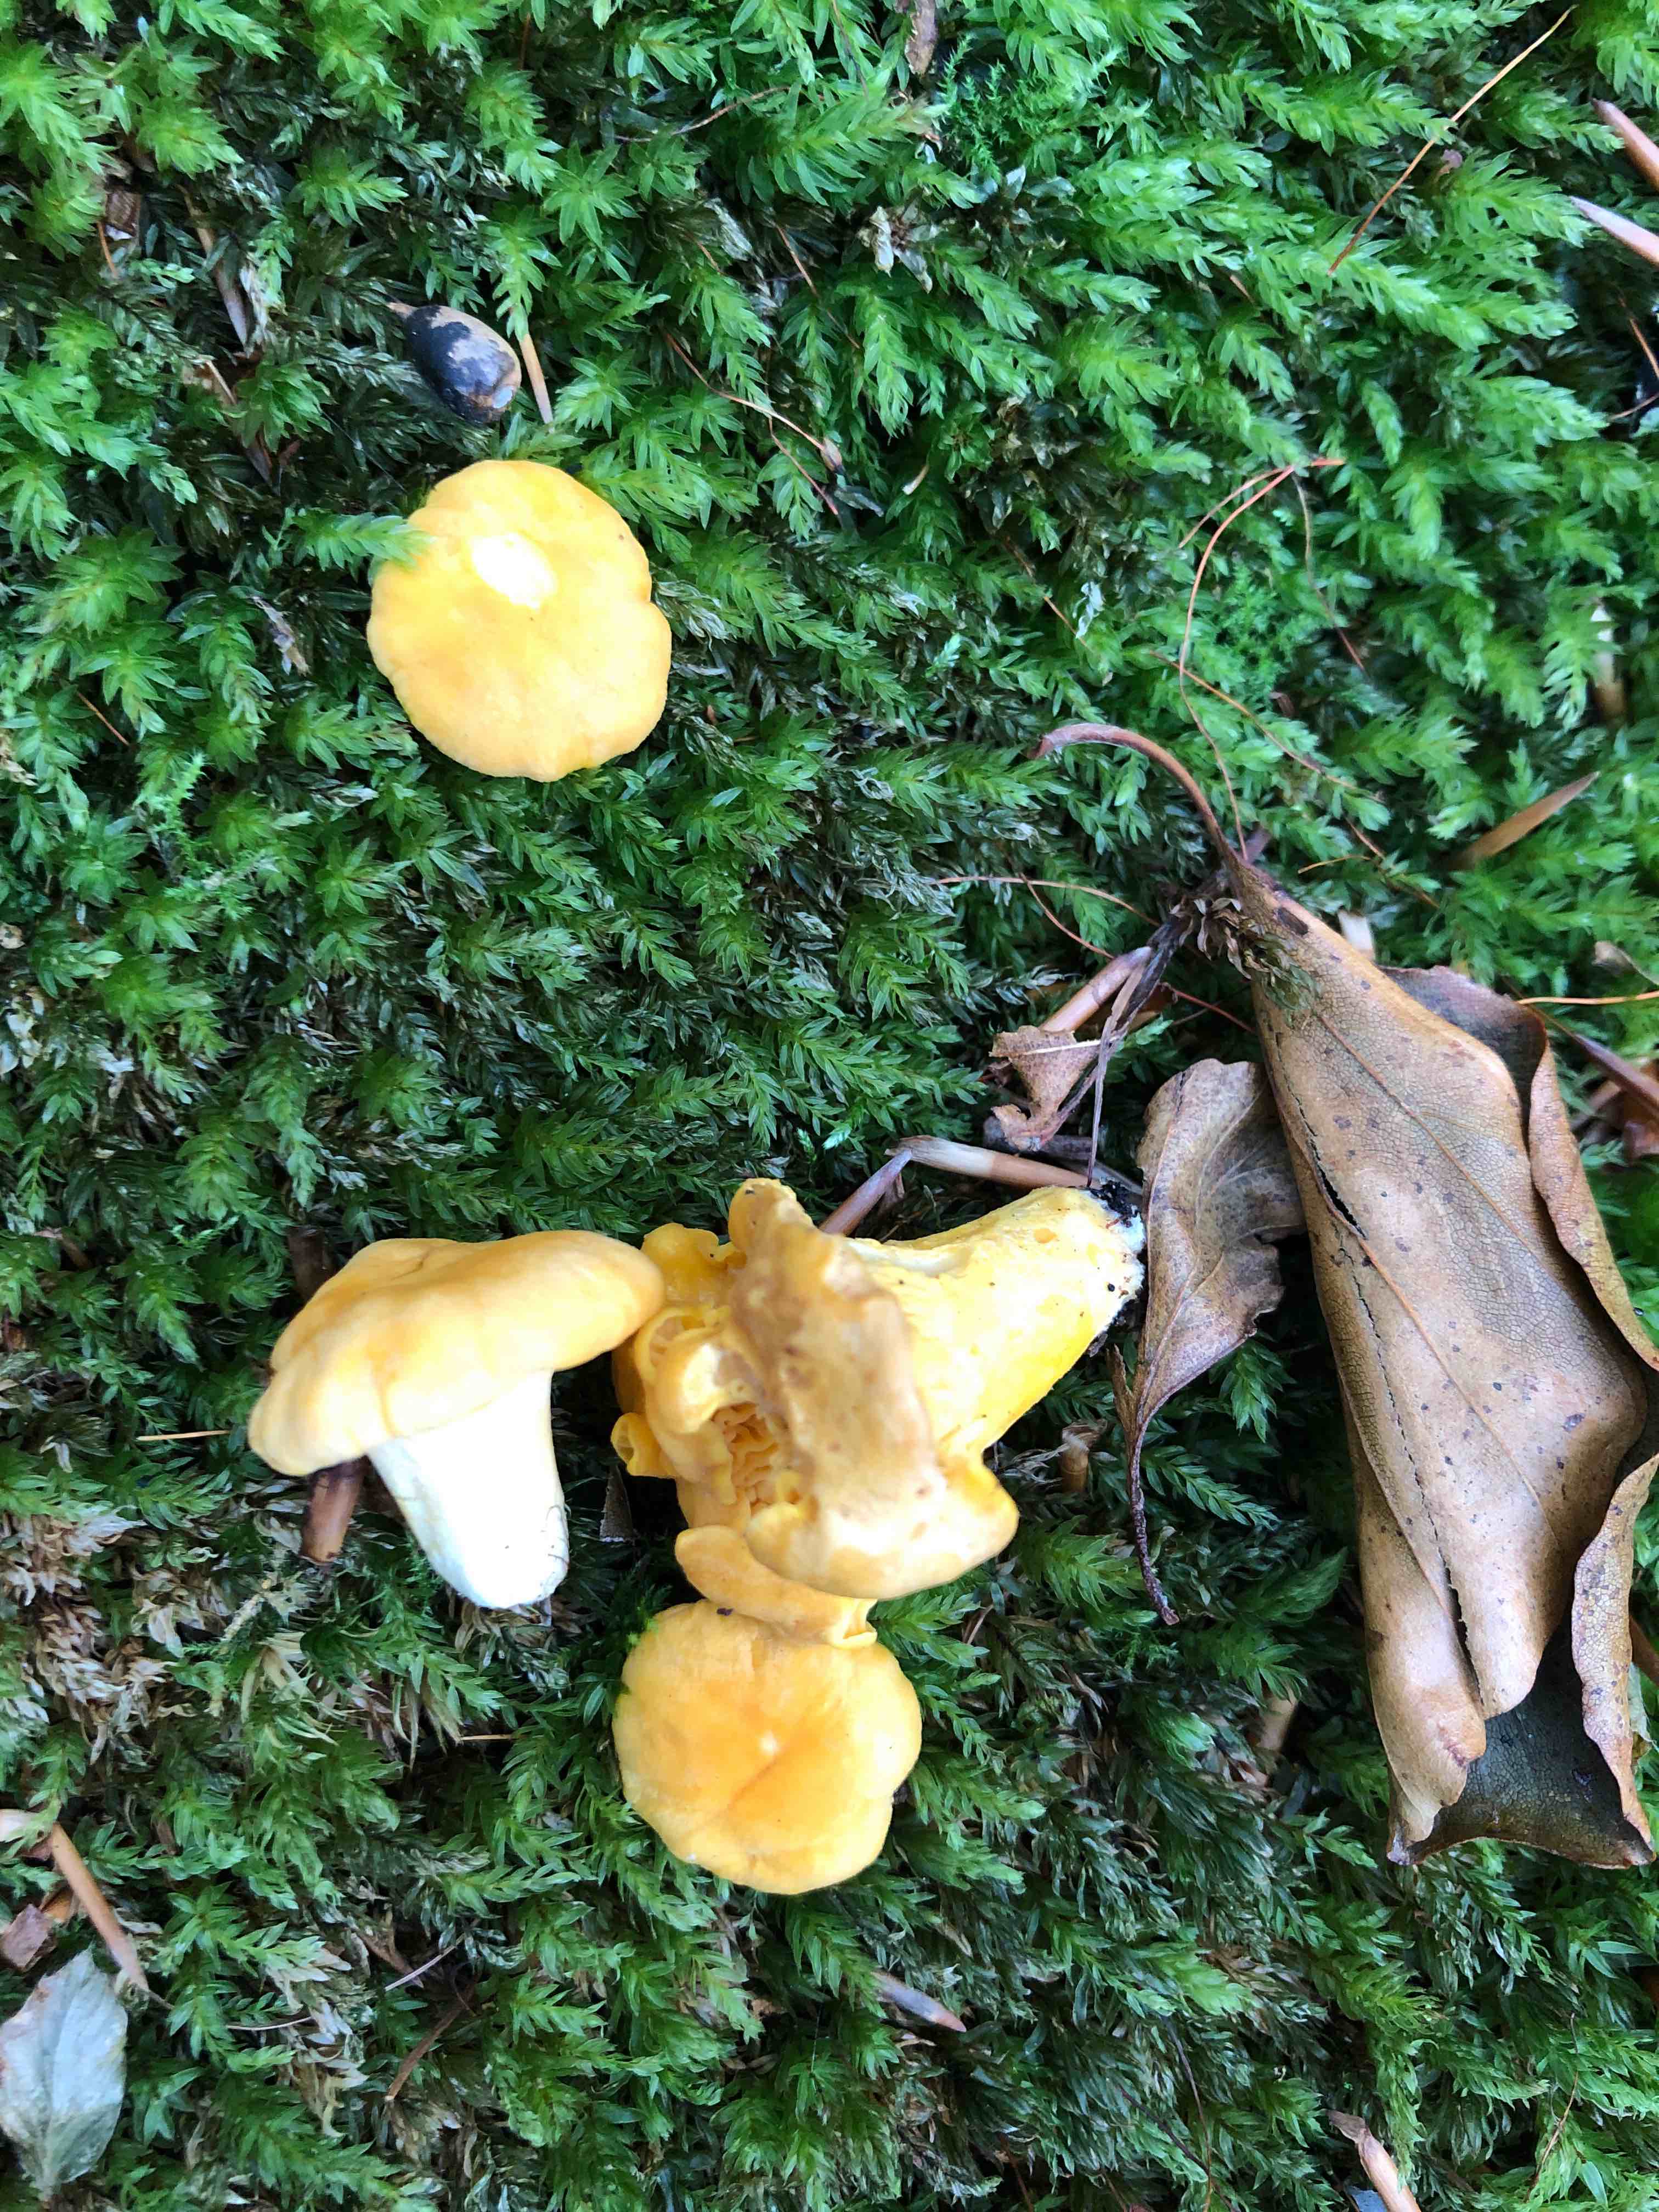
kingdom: Fungi
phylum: Basidiomycota
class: Agaricomycetes
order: Cantharellales
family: Hydnaceae
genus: Cantharellus
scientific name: Cantharellus cibarius
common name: almindelig kantarel
